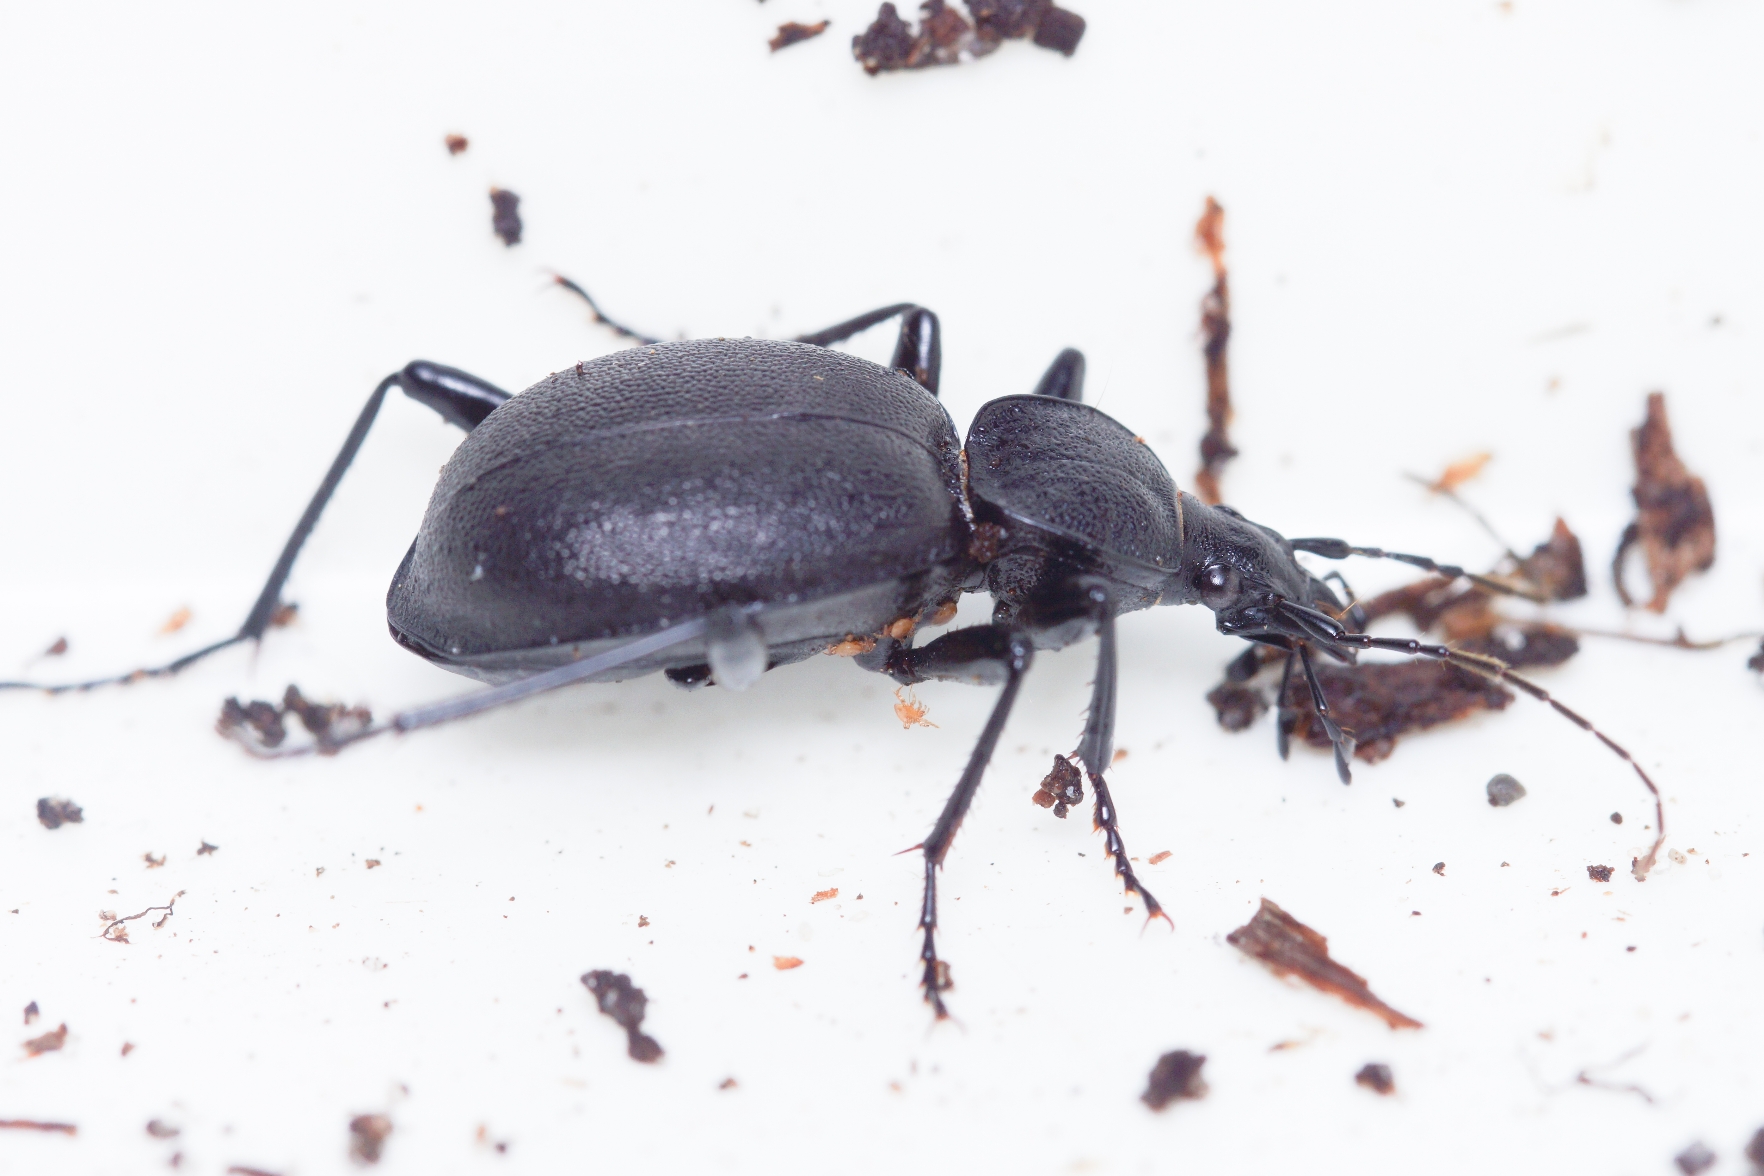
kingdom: Animalia
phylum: Arthropoda
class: Insecta
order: Coleoptera
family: Carabidae
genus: Cychrus
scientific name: Cychrus caraboides
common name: Sneglerøver
